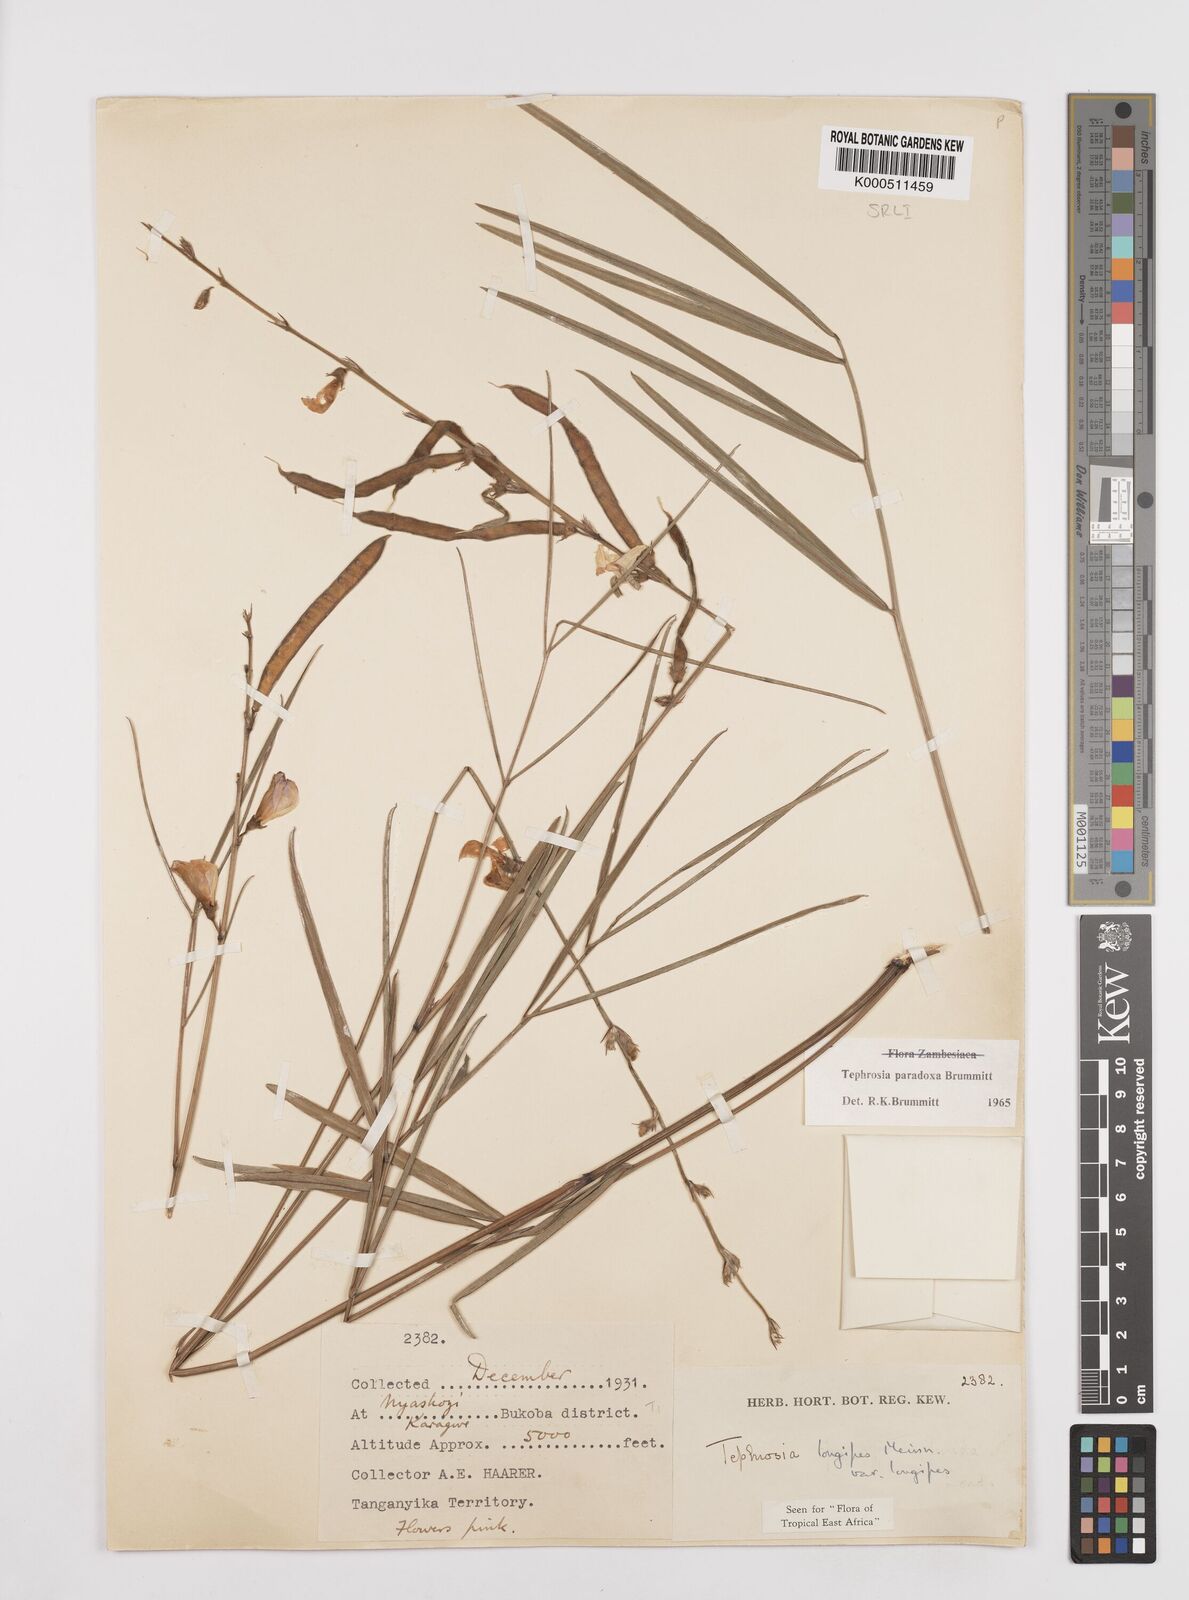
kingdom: Plantae
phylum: Tracheophyta
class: Magnoliopsida
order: Fabales
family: Fabaceae
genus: Tephrosia
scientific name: Tephrosia paradoxa
